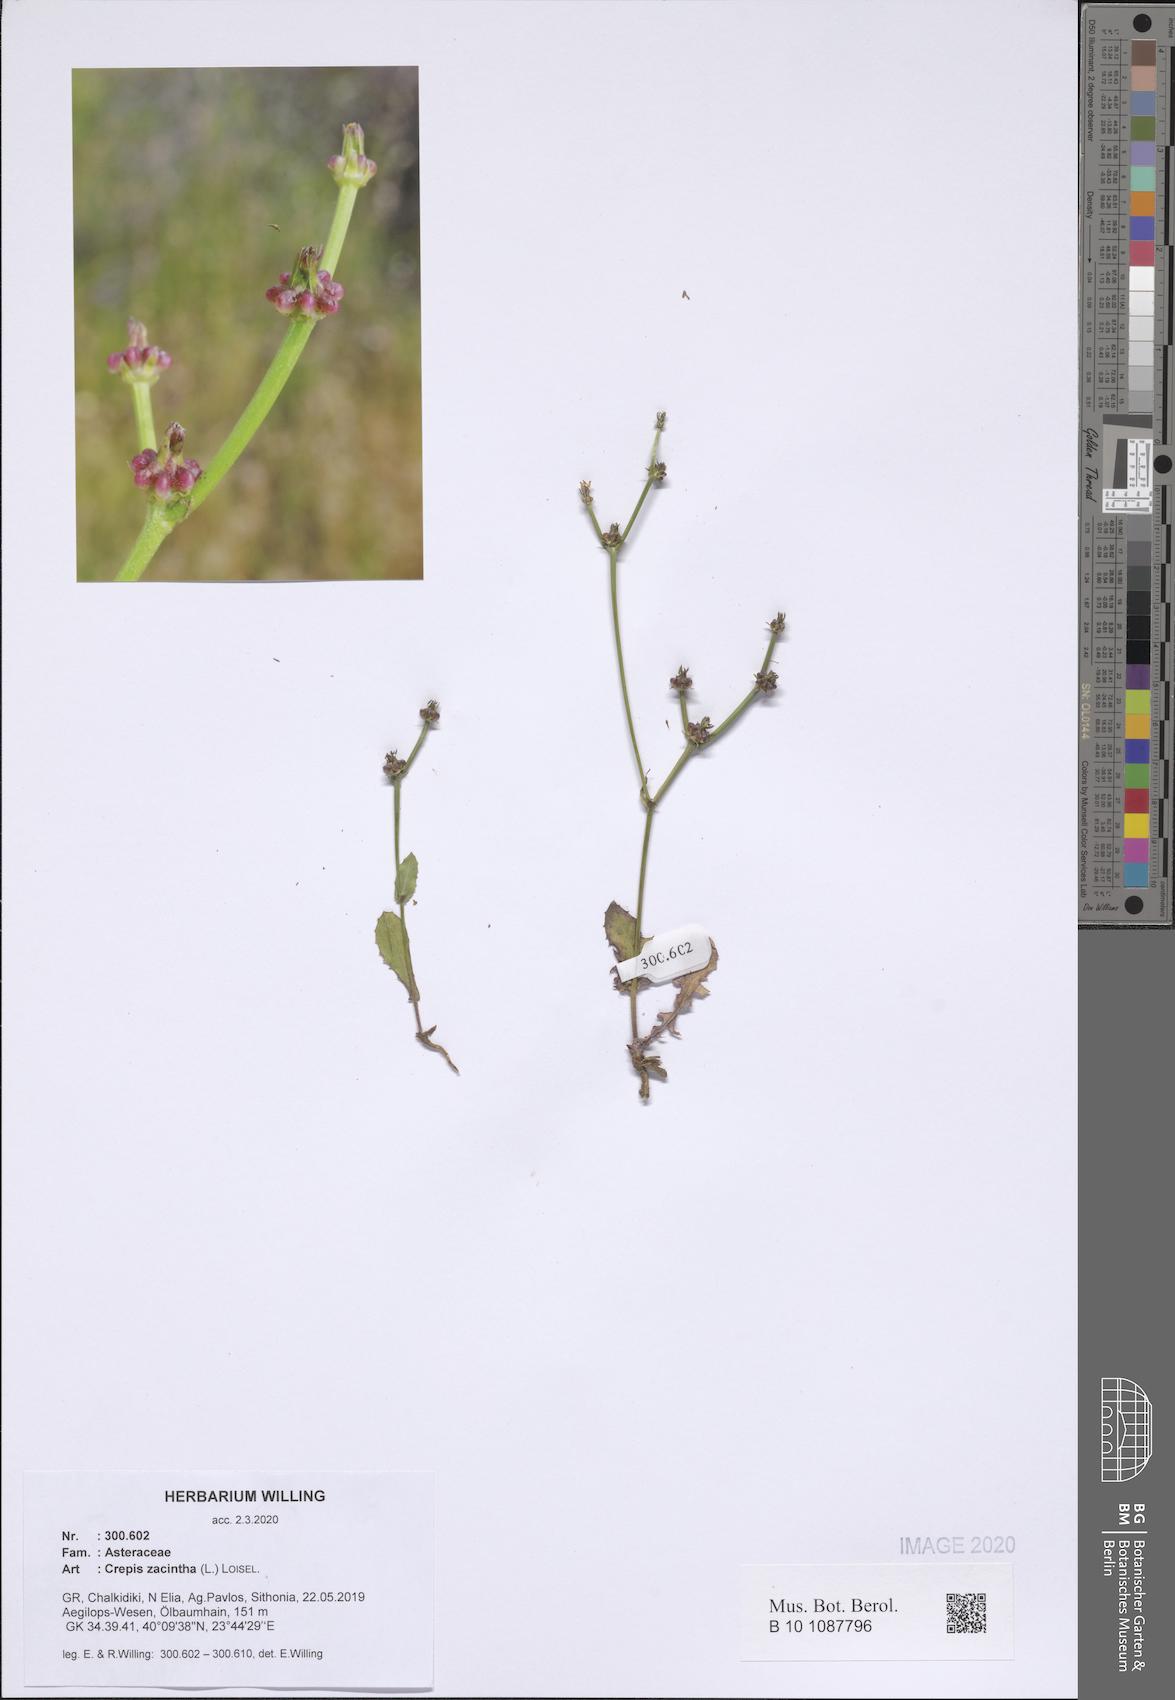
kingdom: Plantae
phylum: Tracheophyta
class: Magnoliopsida
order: Asterales
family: Asteraceae
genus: Crepis
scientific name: Crepis zacintha
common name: Striped hawksbeard
